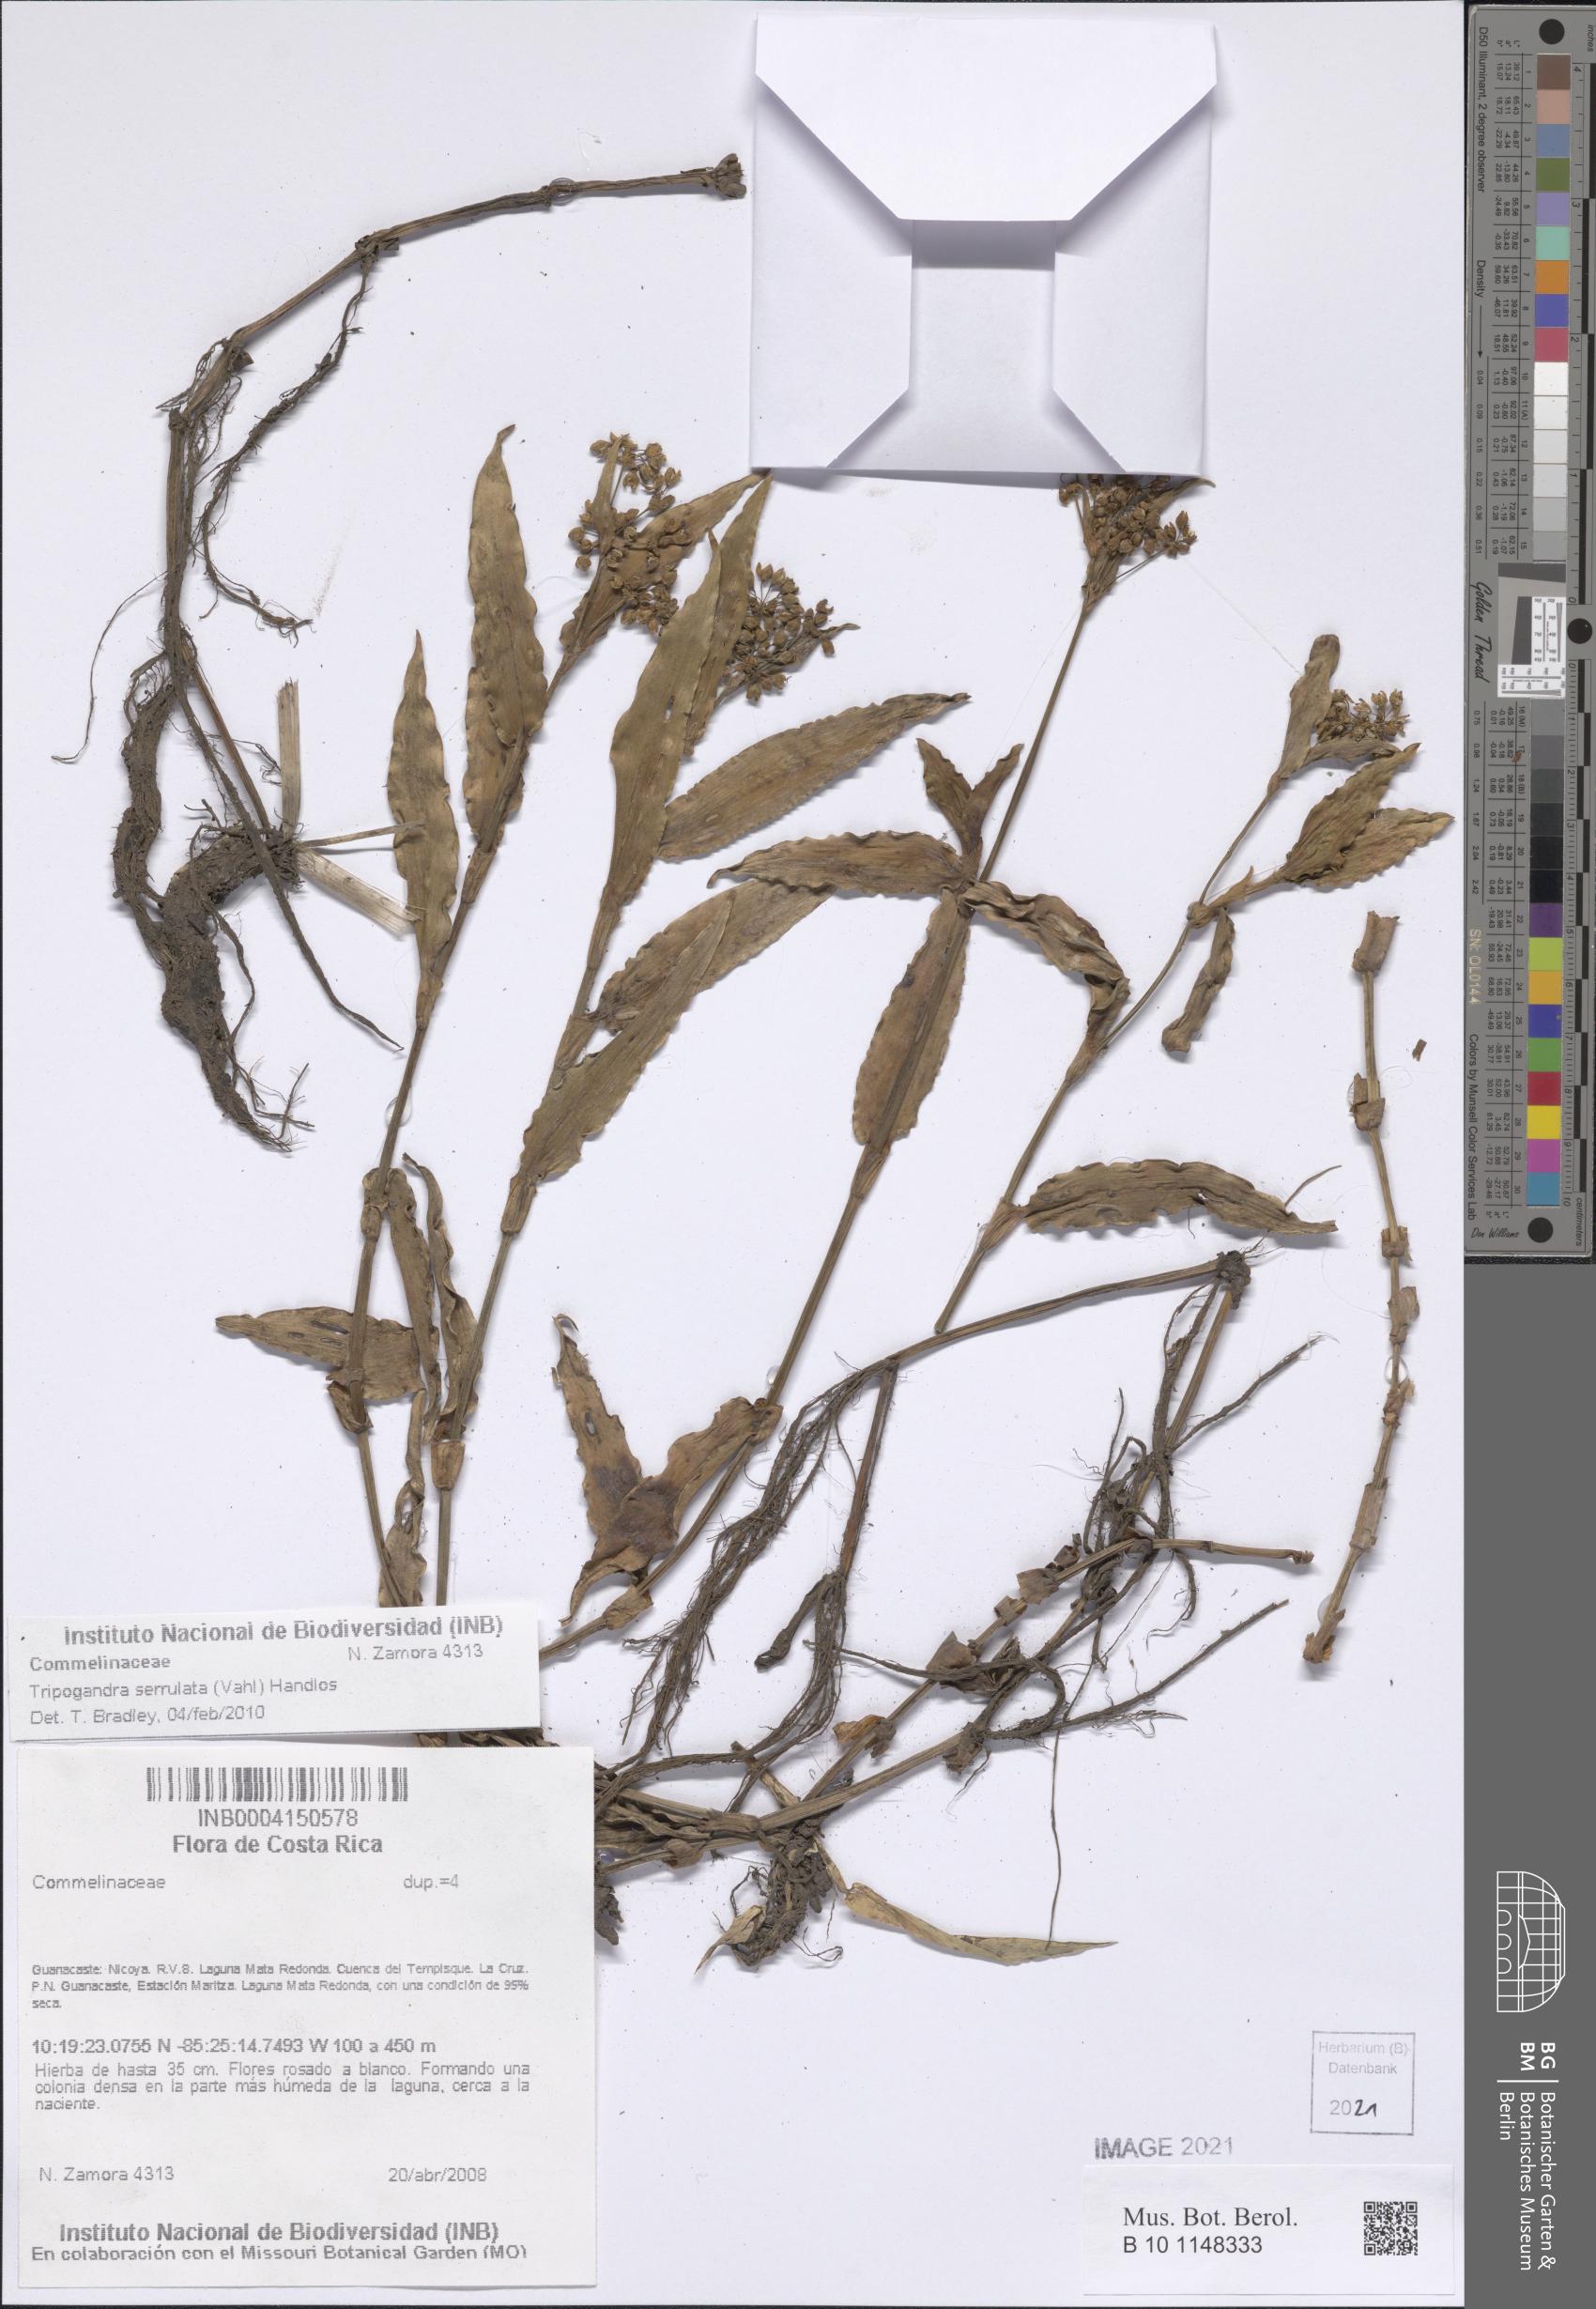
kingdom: Plantae
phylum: Tracheophyta
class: Liliopsida
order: Commelinales
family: Commelinaceae
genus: Callisia
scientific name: Callisia serrulata
